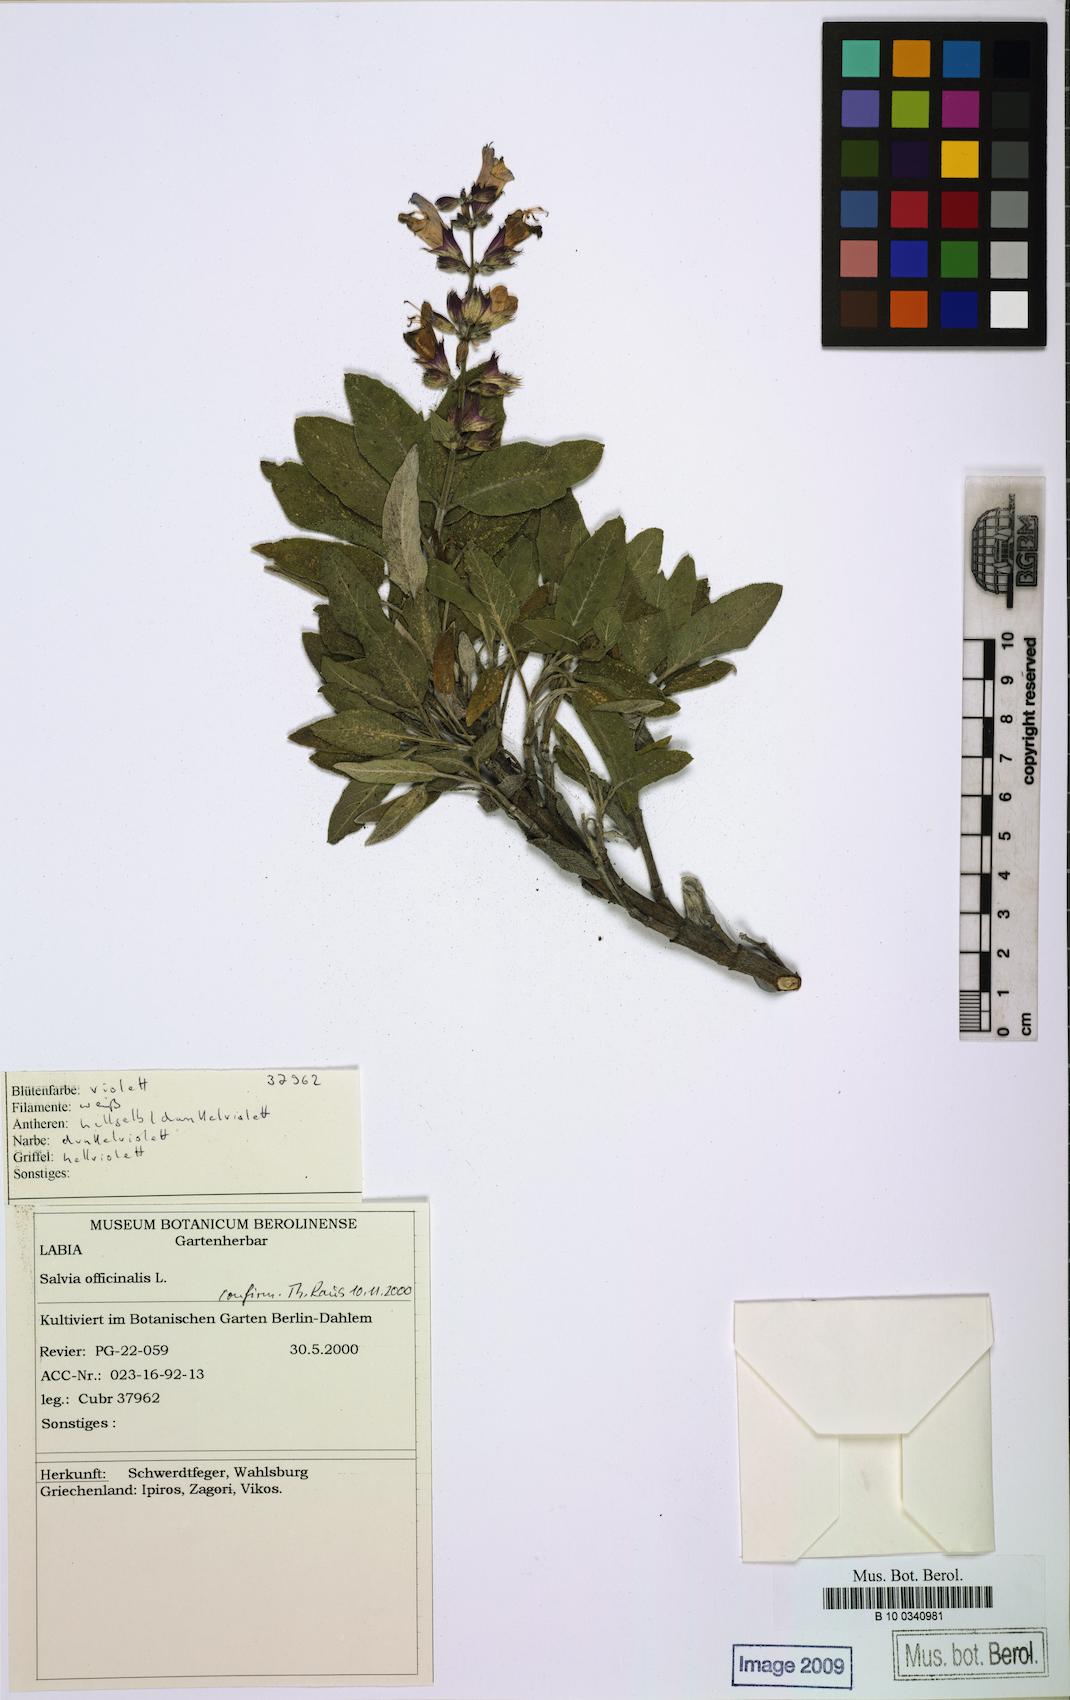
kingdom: Plantae
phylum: Tracheophyta
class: Magnoliopsida
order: Lamiales
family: Lamiaceae
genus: Salvia
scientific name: Salvia officinalis
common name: Sage
